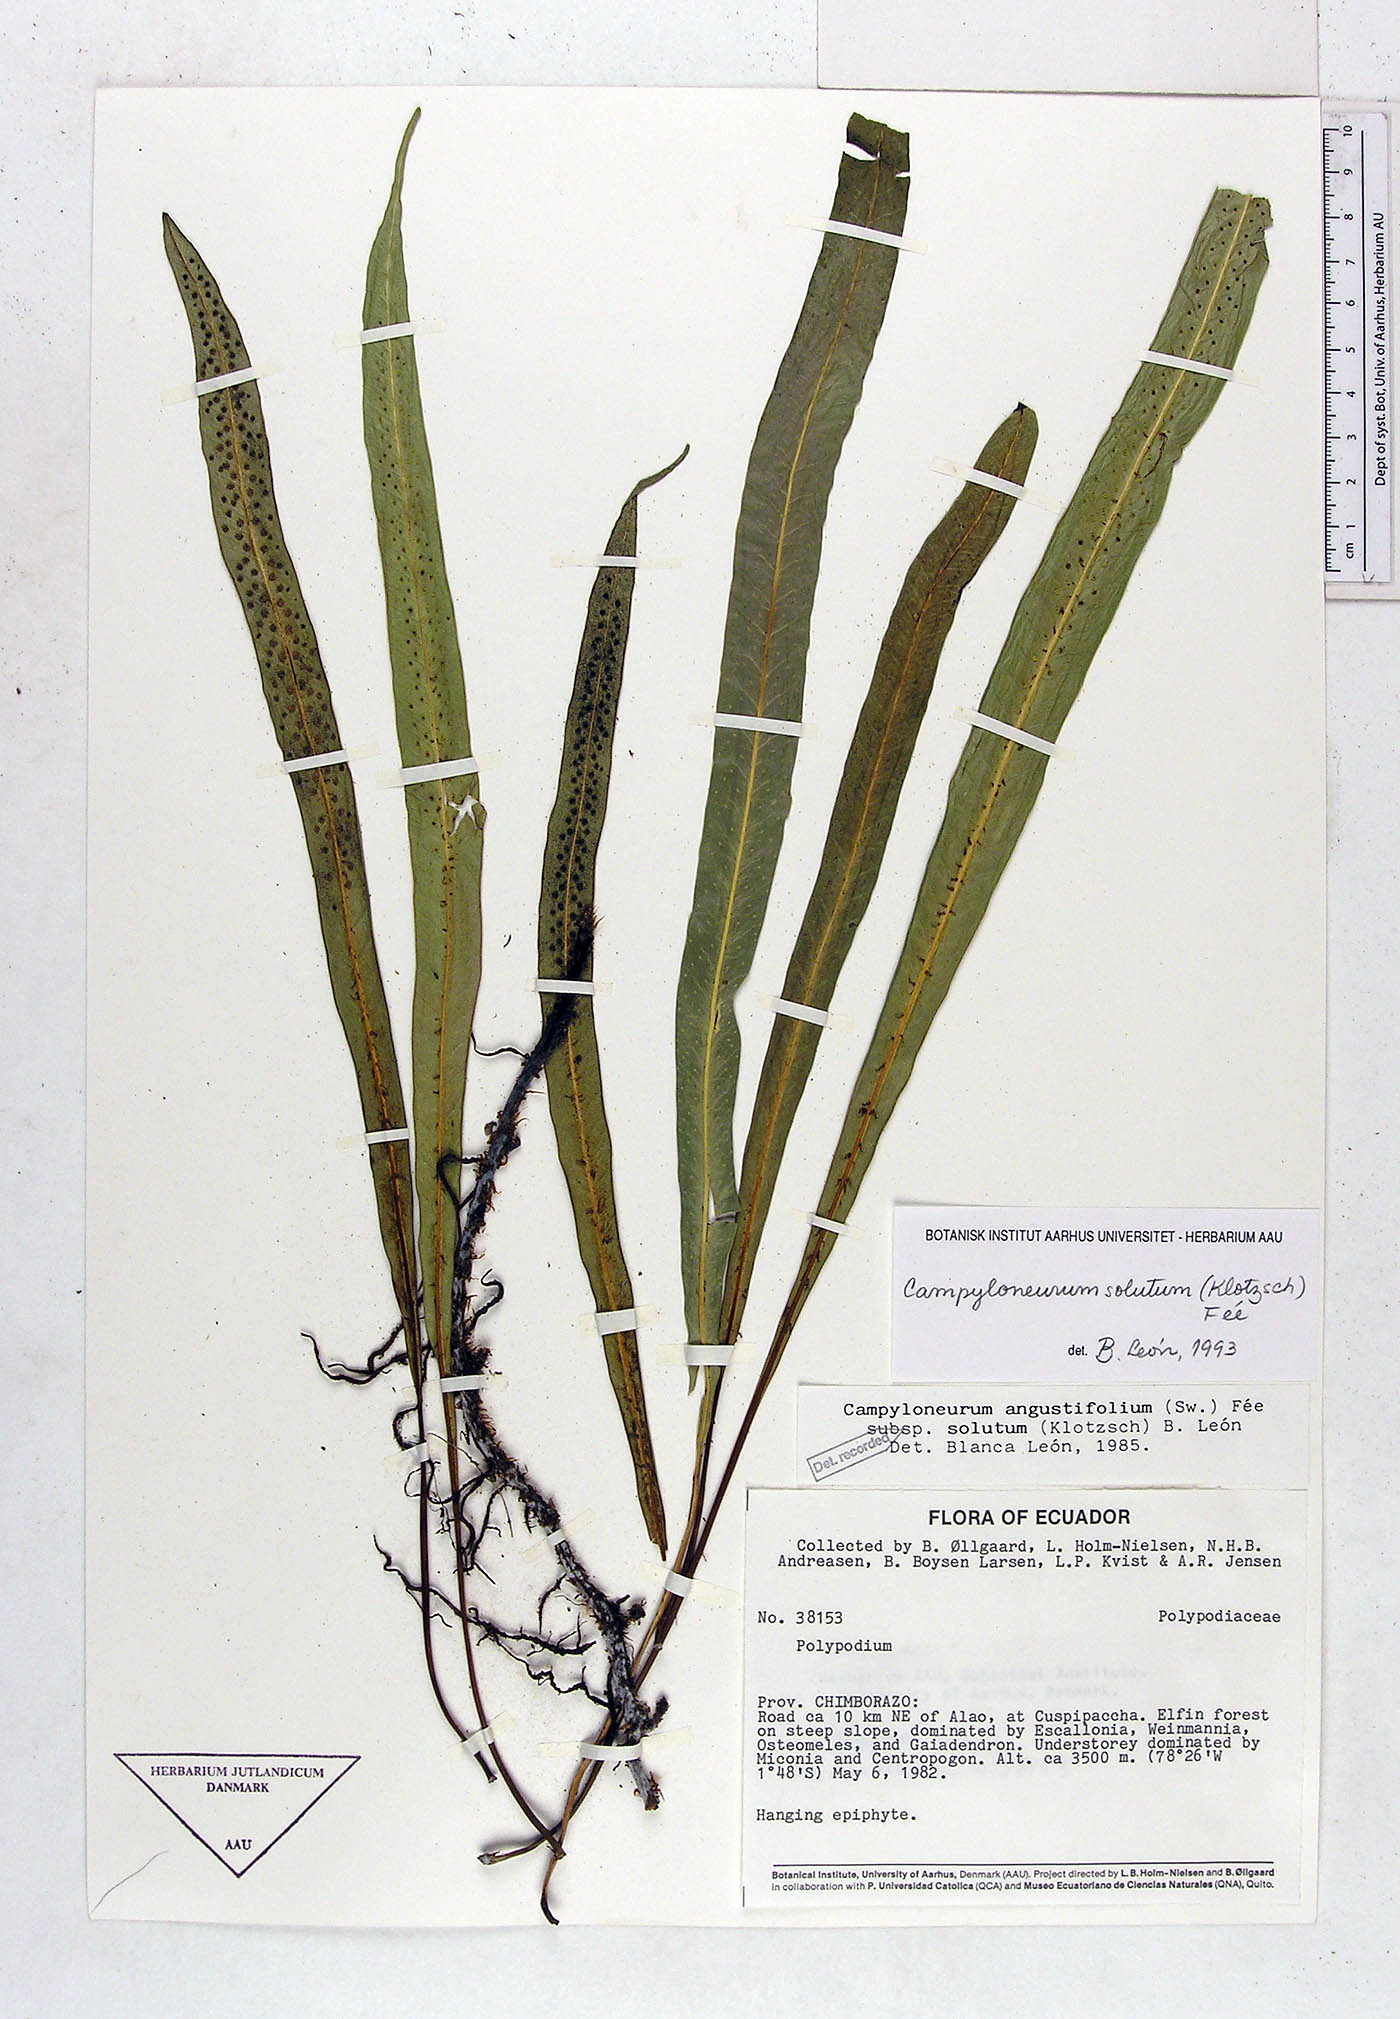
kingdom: Plantae
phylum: Tracheophyta
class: Polypodiopsida
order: Polypodiales
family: Polypodiaceae
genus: Campyloneurum
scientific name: Campyloneurum solutum
